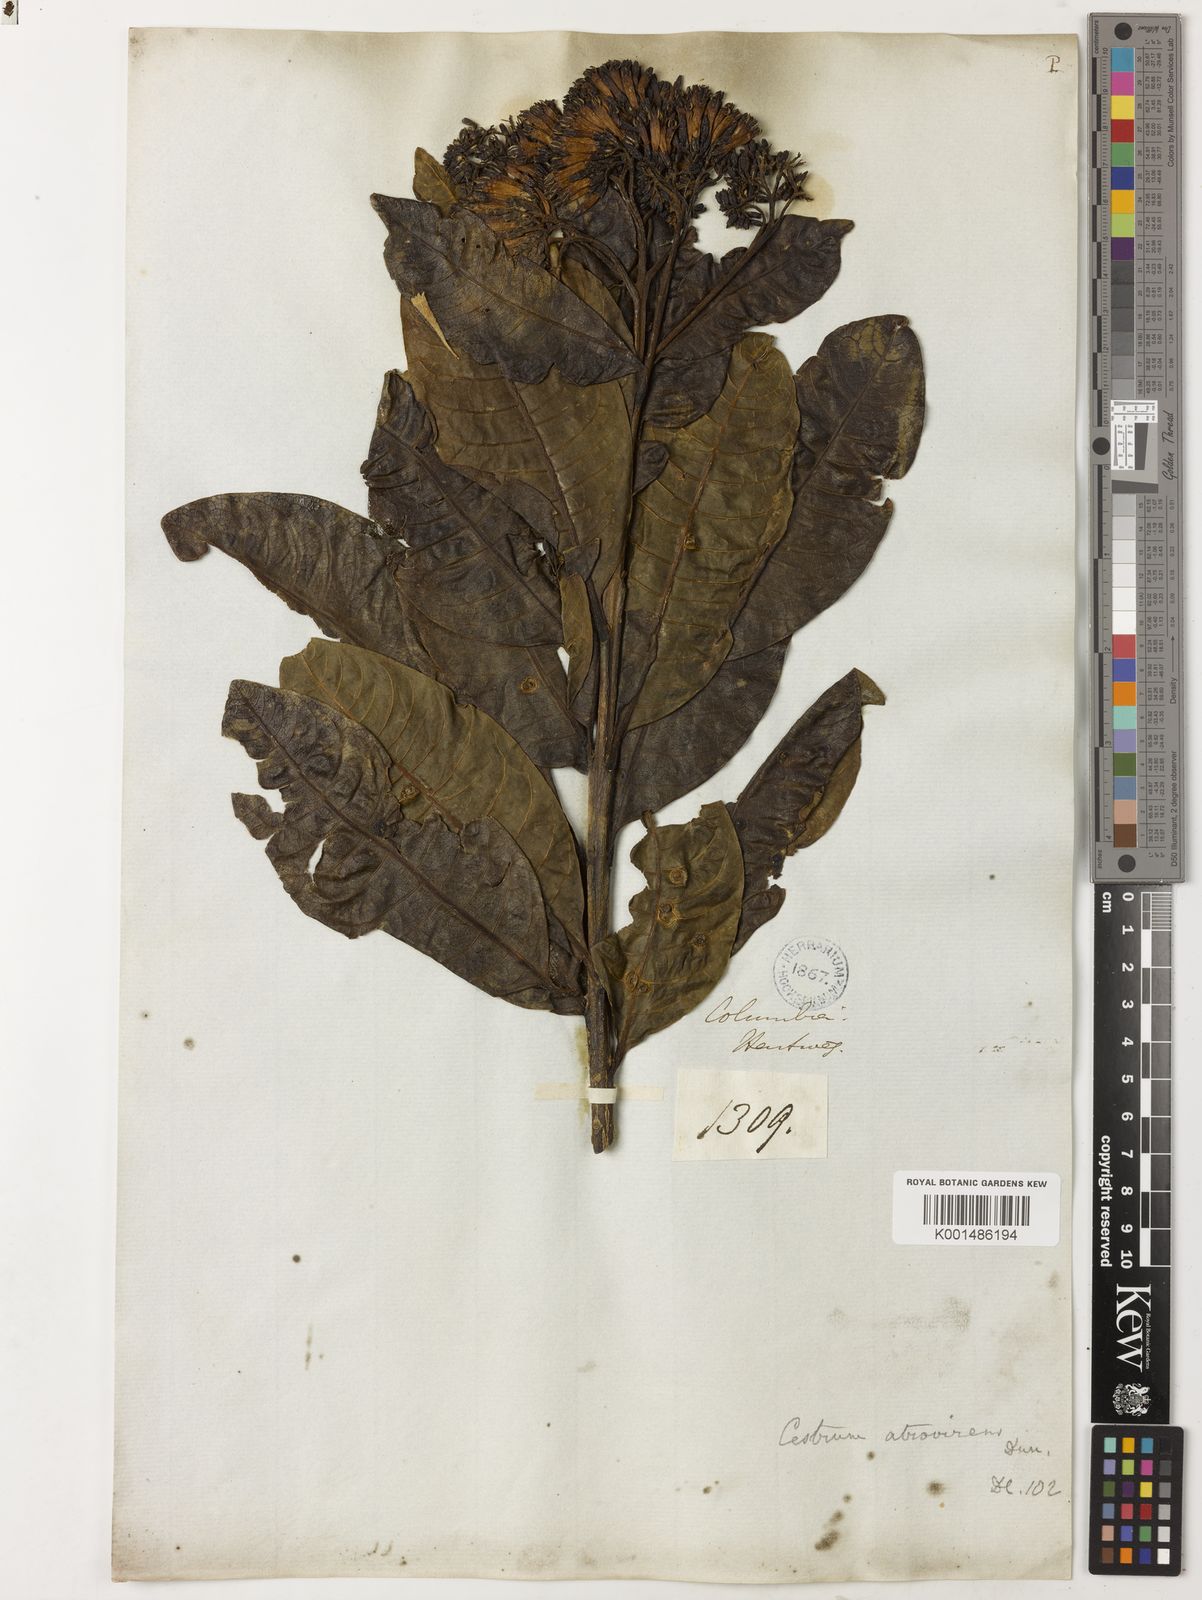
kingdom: Plantae
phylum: Tracheophyta
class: Magnoliopsida
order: Solanales
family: Solanaceae
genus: Sessea
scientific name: Sessea corymbiflora
